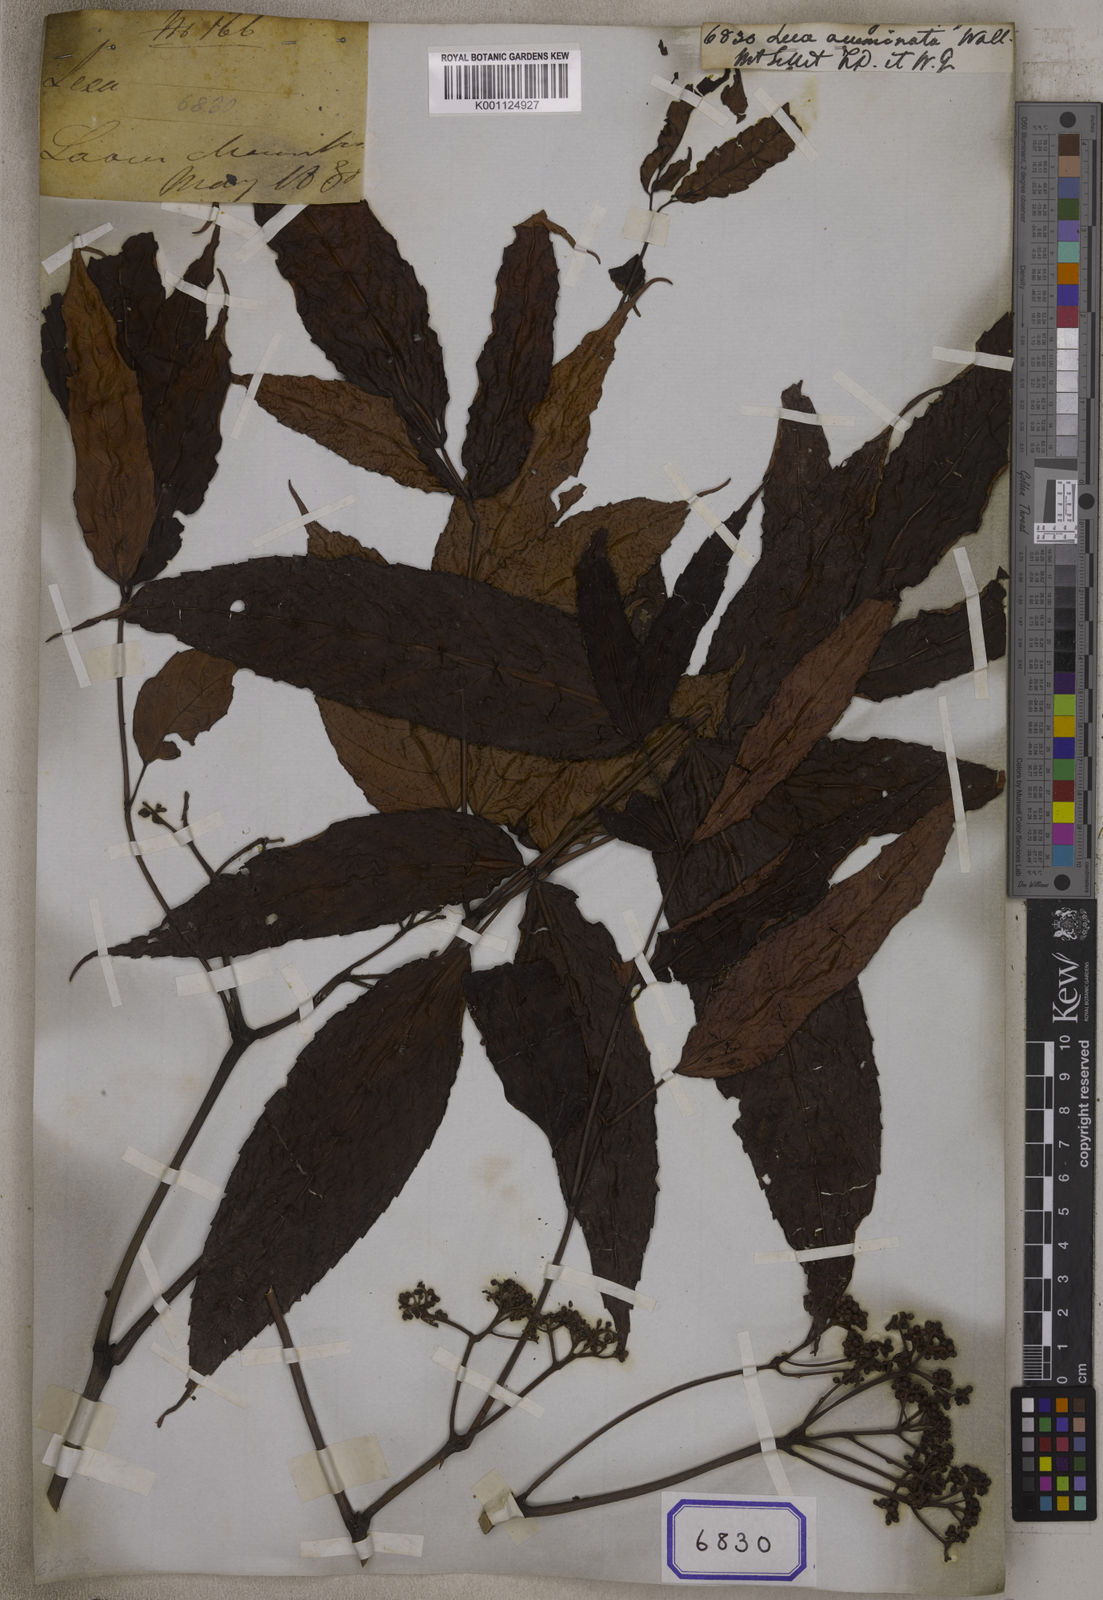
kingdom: Plantae
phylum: Tracheophyta
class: Magnoliopsida
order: Vitales
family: Vitaceae
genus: Leea
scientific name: Leea
